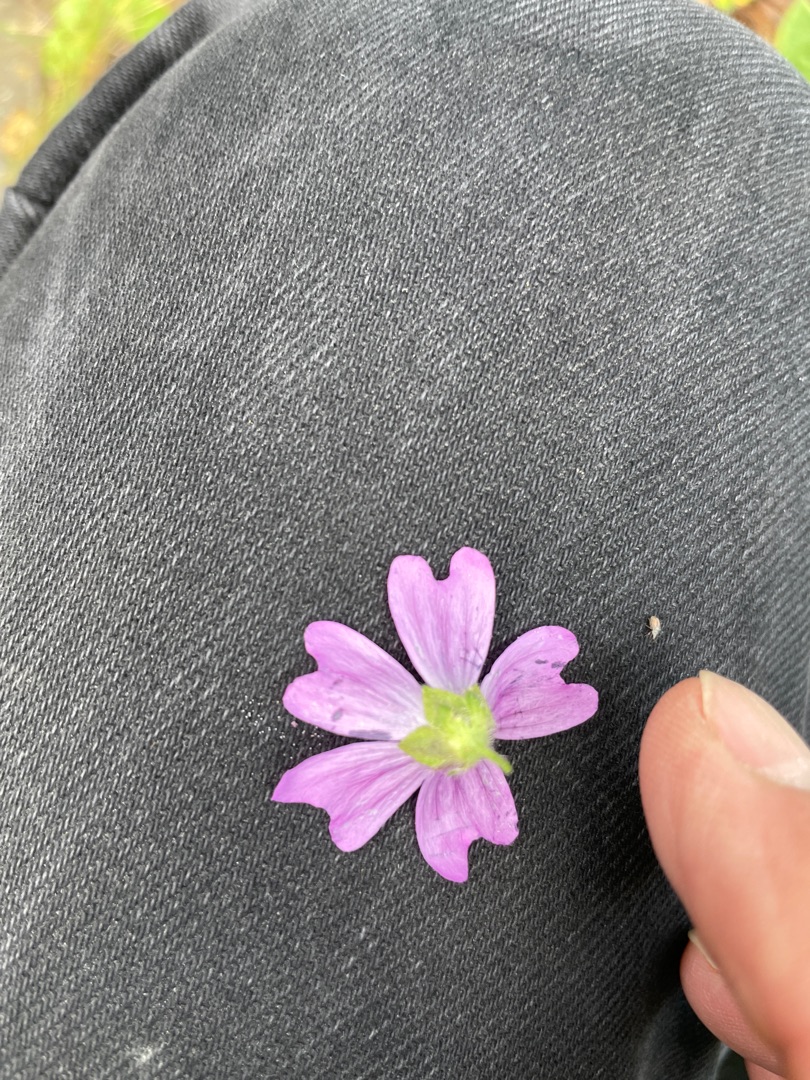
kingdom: Plantae
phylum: Tracheophyta
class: Magnoliopsida
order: Malvales
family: Malvaceae
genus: Malva
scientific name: Malva sylvestris
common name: Almindelig katost
